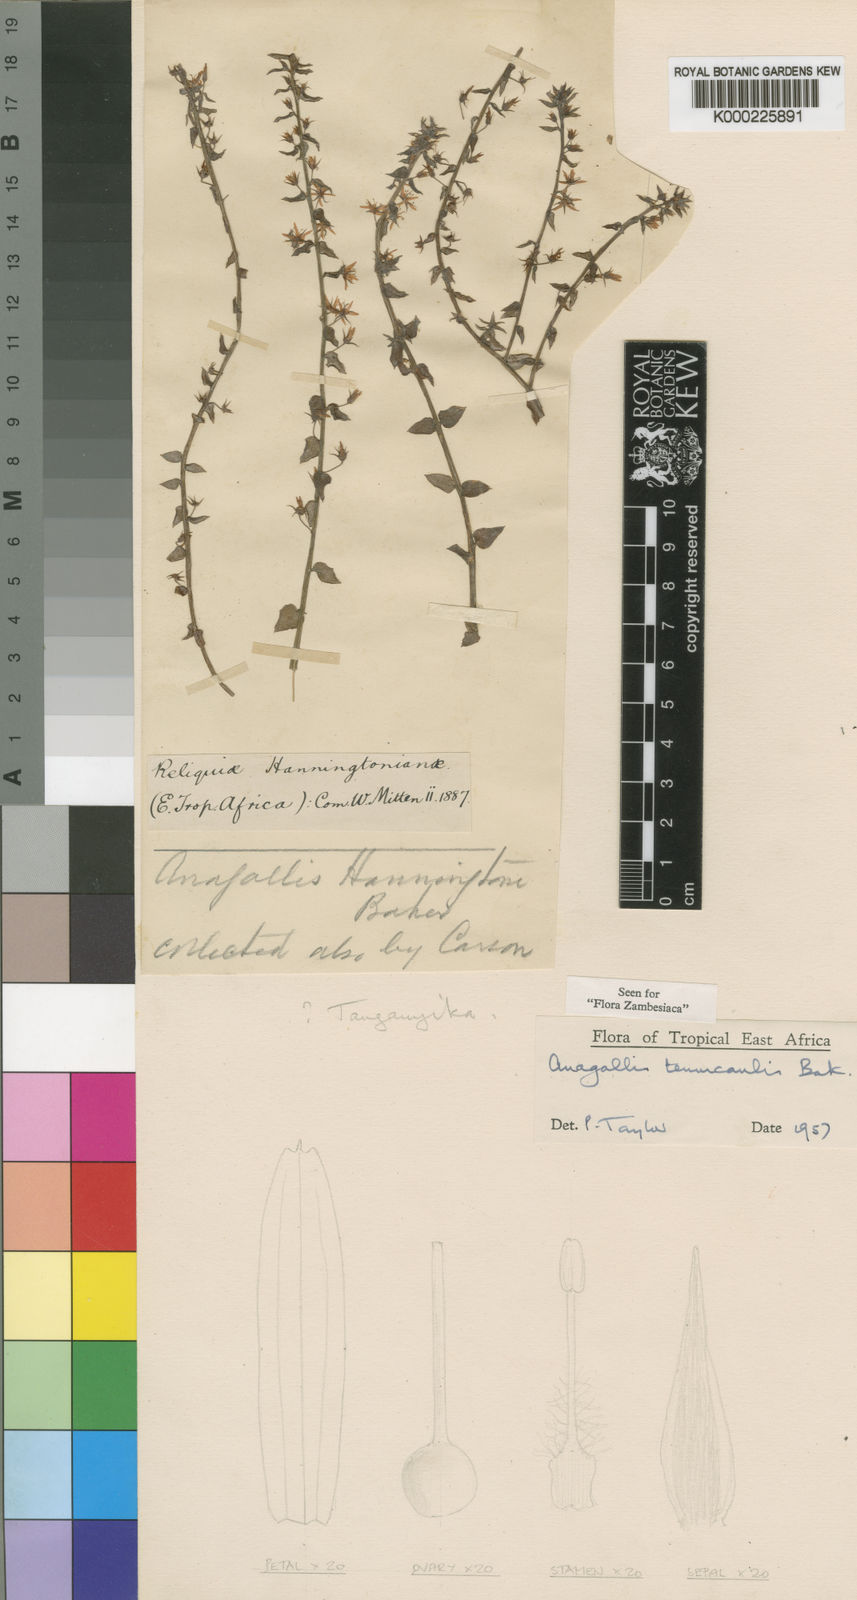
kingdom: Plantae
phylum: Tracheophyta
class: Magnoliopsida
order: Ericales
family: Primulaceae
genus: Lysimachia
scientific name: Lysimachia tenuicaulis
